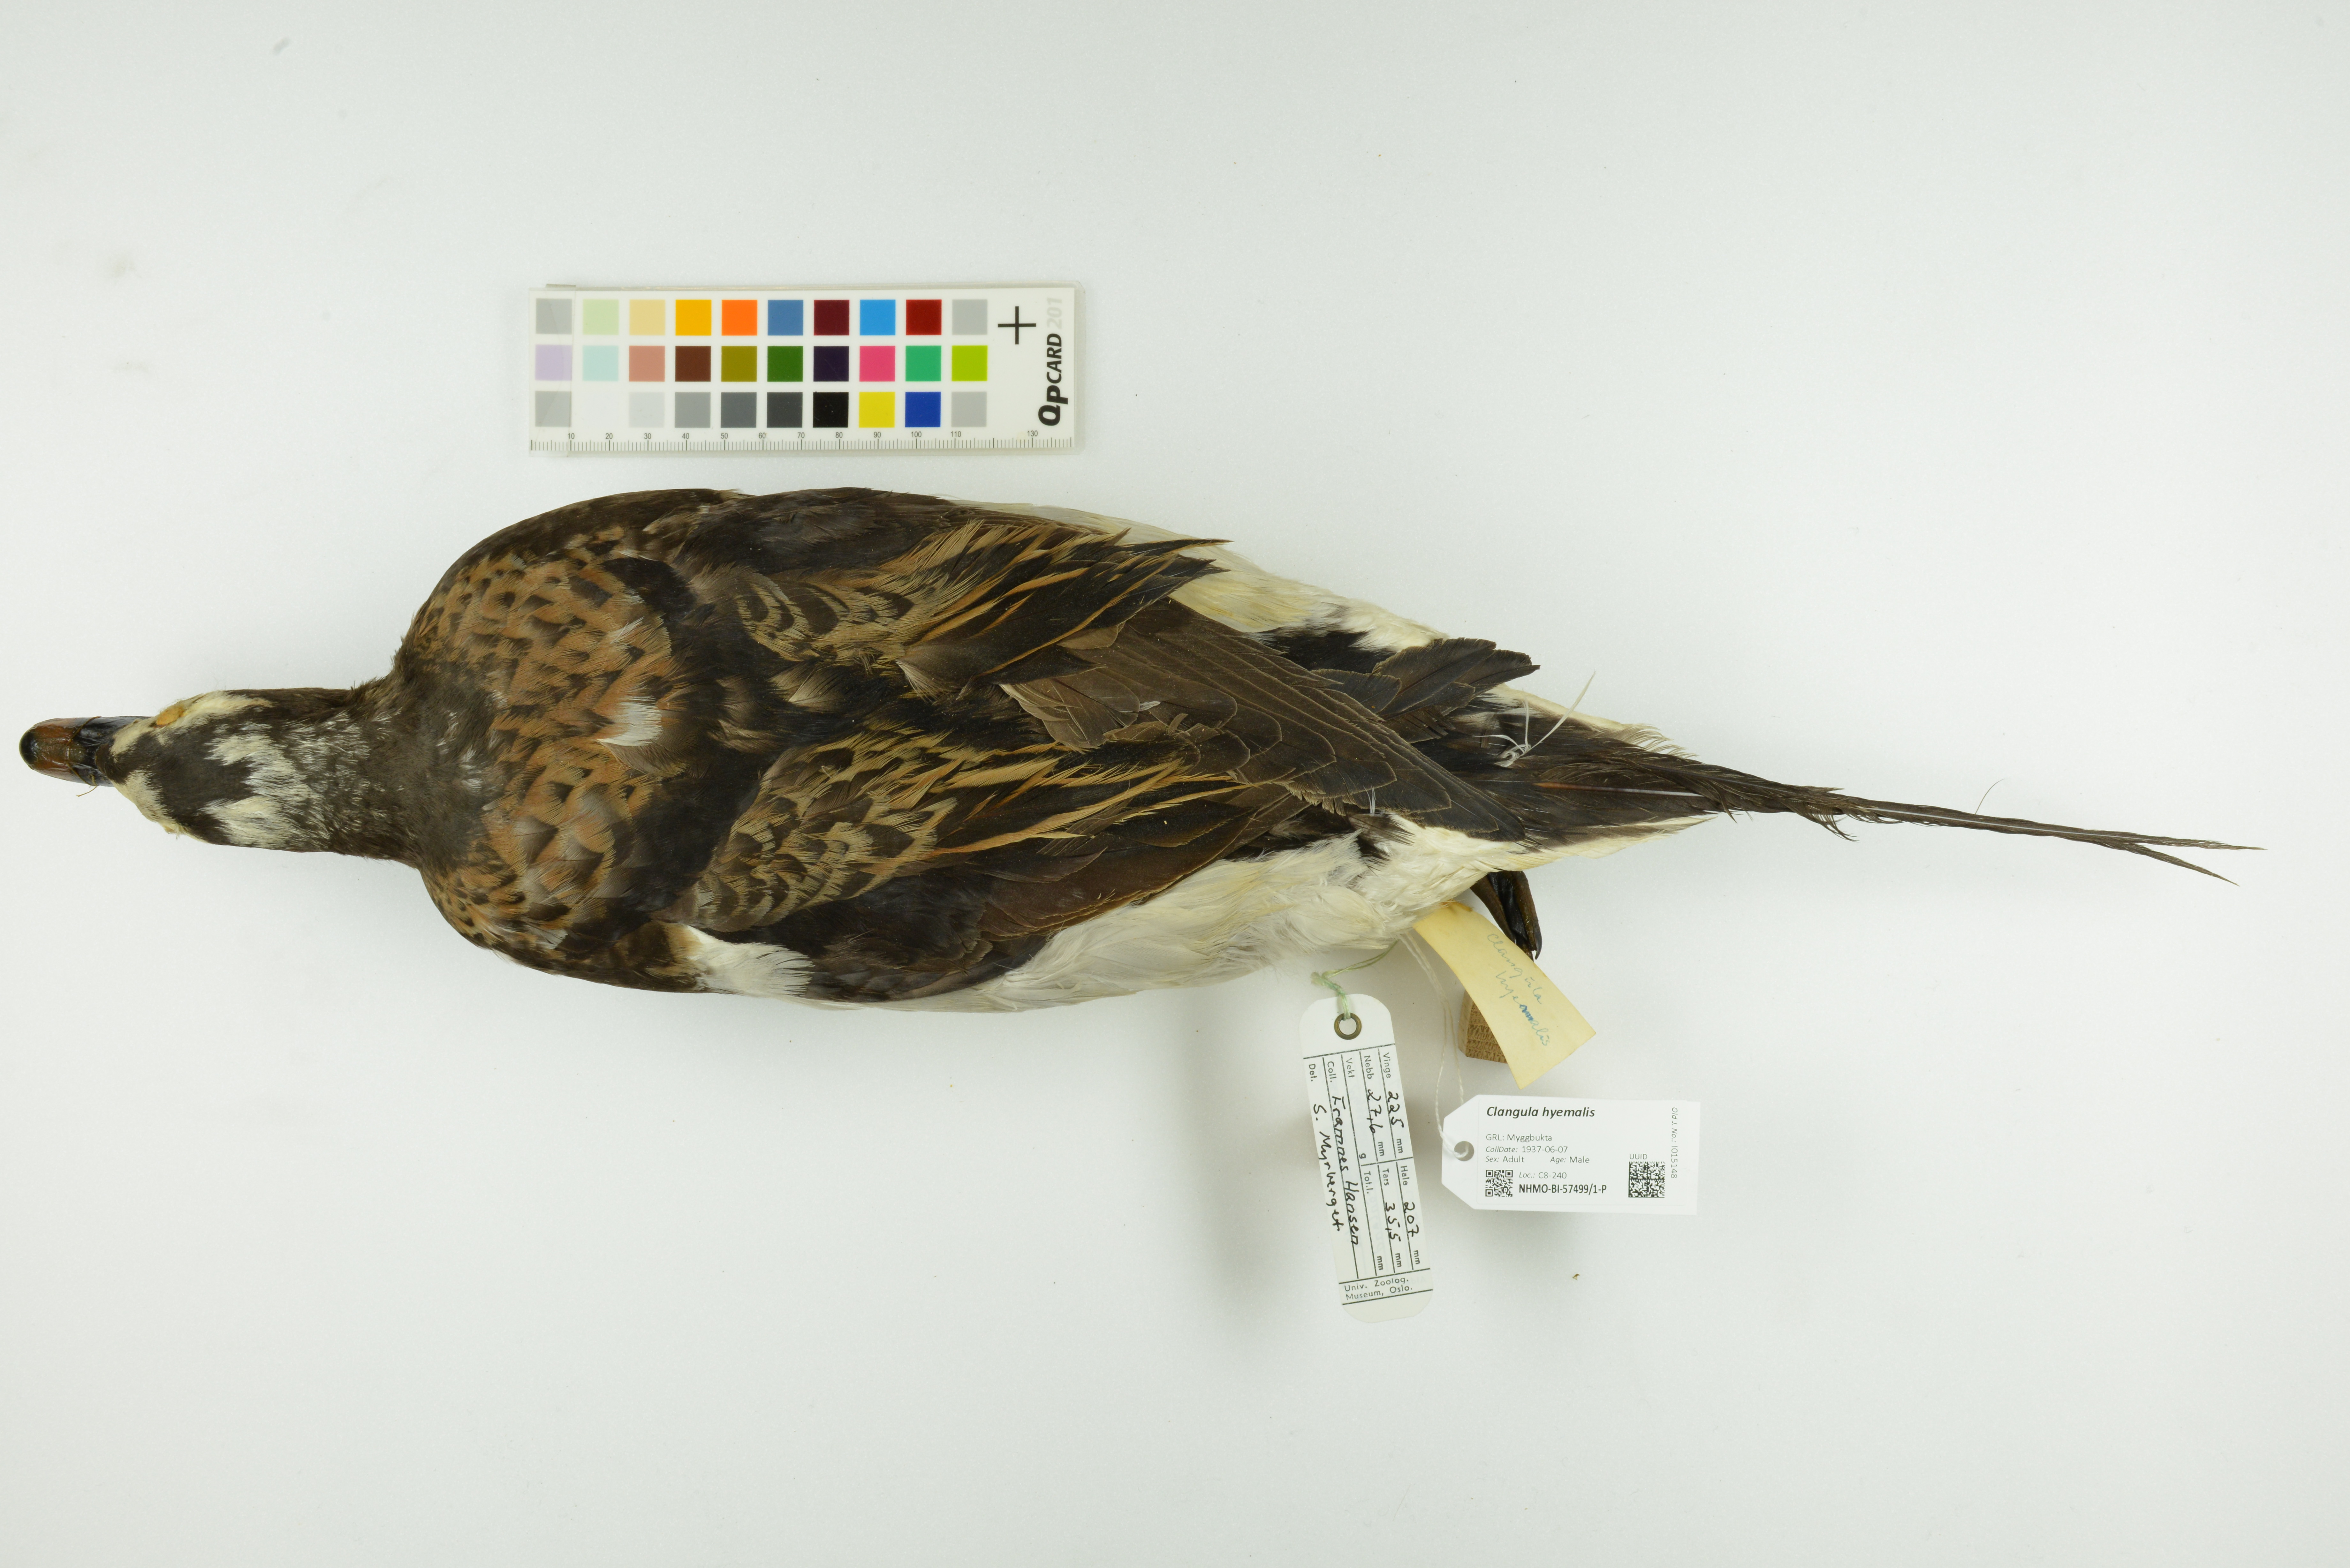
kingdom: Animalia
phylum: Chordata
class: Aves
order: Anseriformes
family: Anatidae
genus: Clangula
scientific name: Clangula hyemalis
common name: Long-tailed duck
